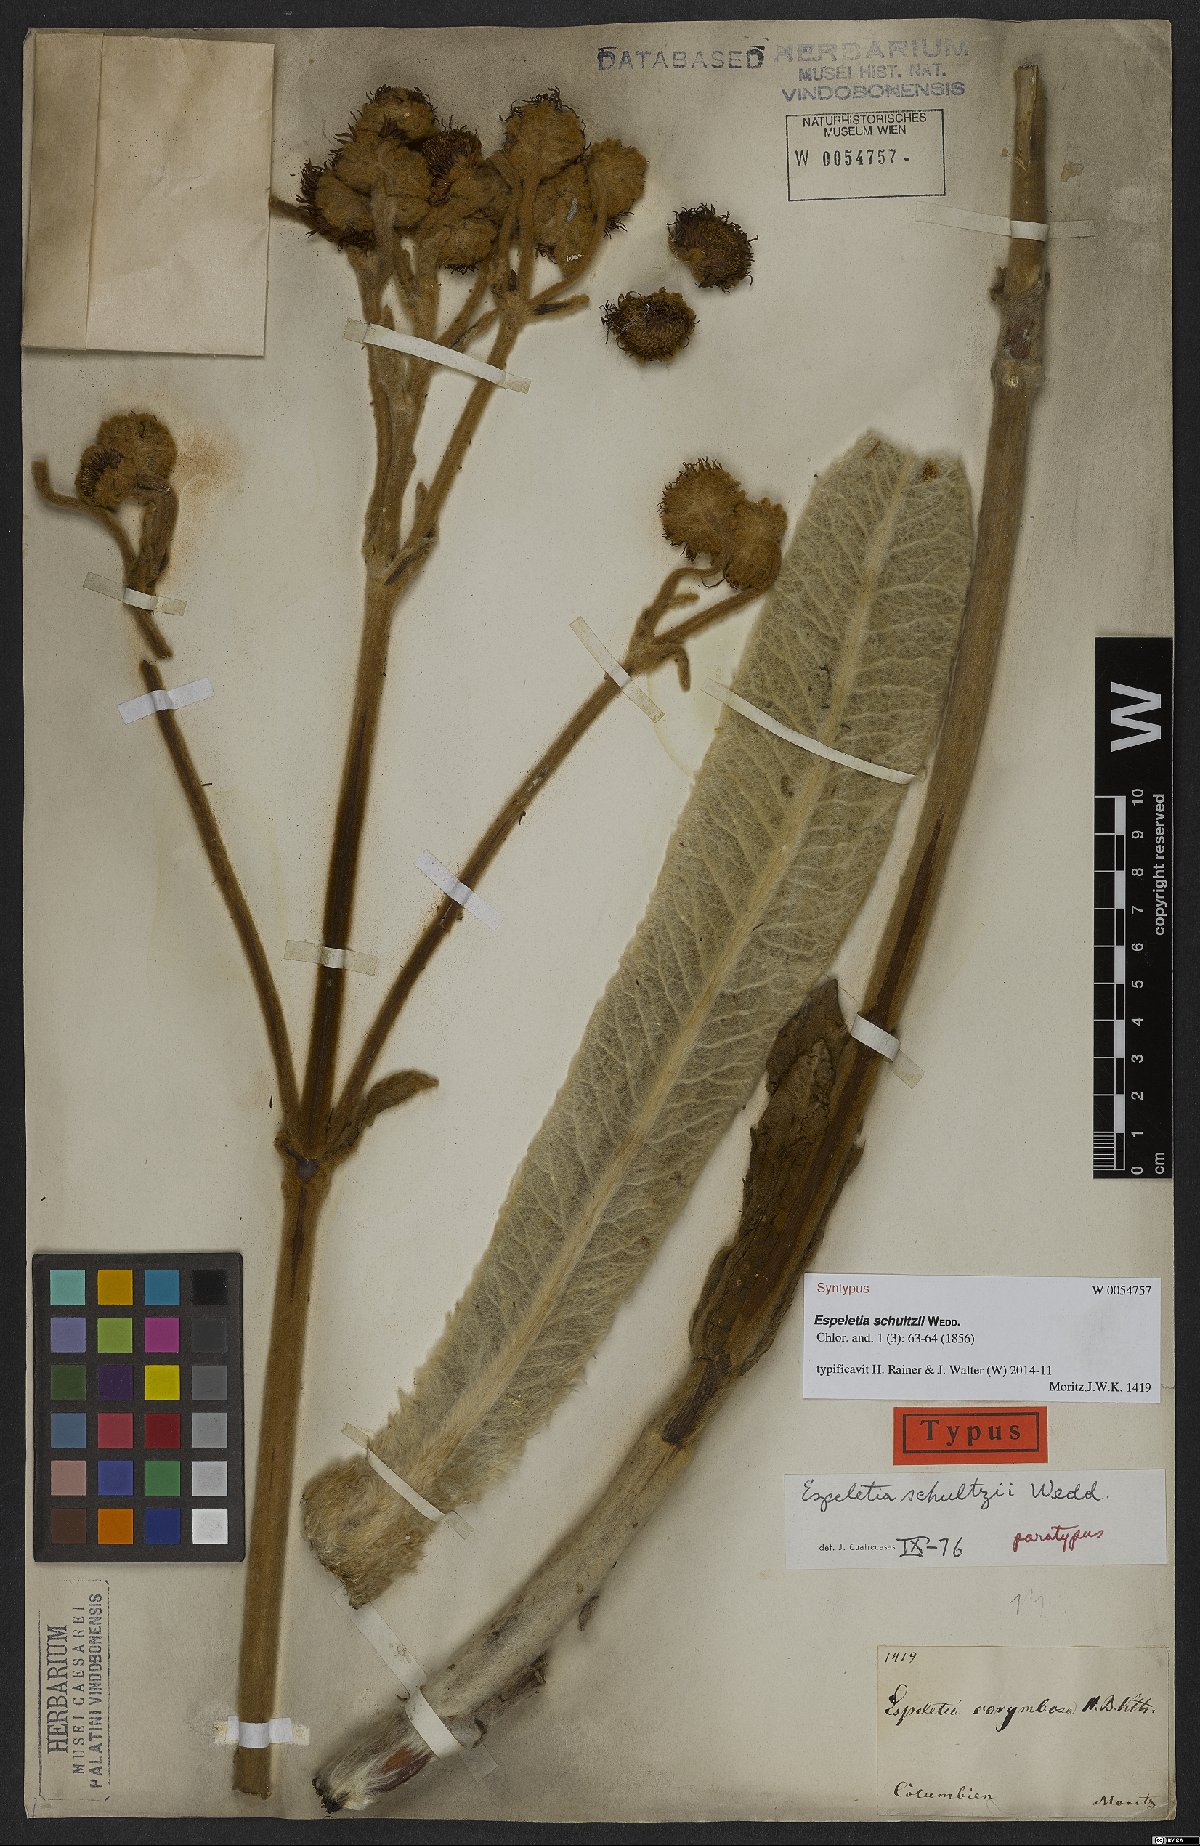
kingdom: Plantae
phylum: Tracheophyta
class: Magnoliopsida
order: Asterales
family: Asteraceae
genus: Espeletia
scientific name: Espeletia schultzii
